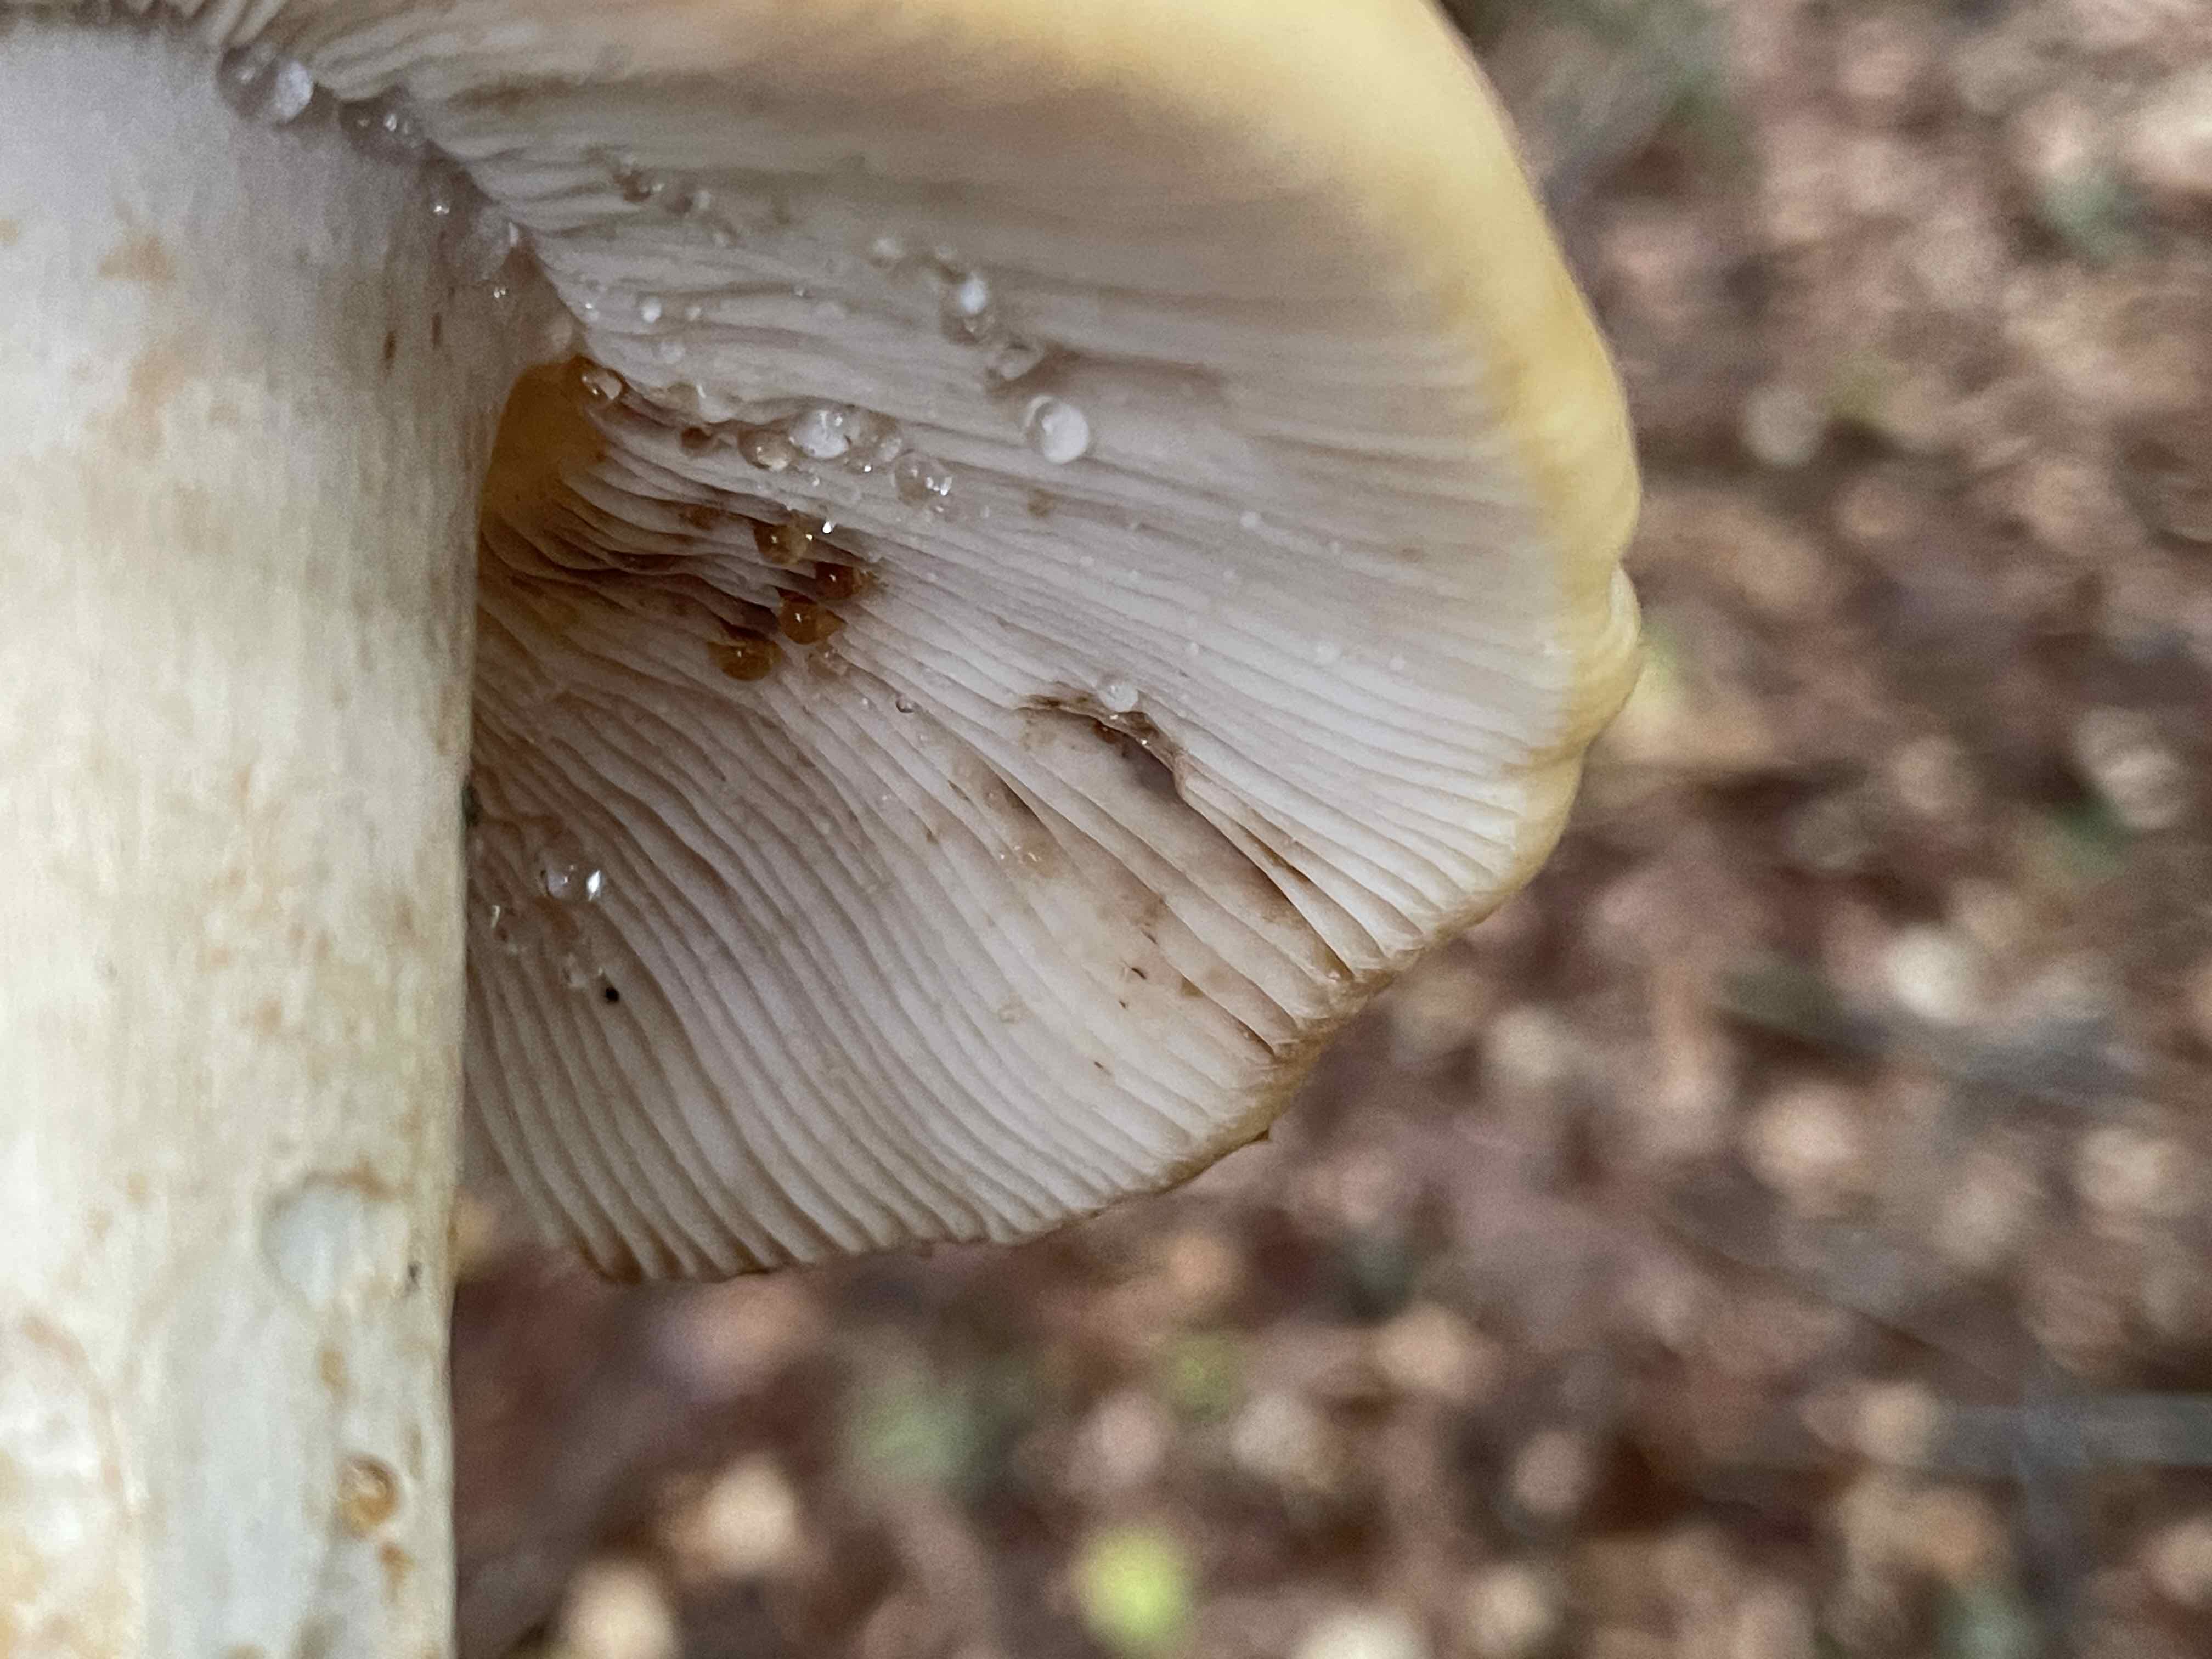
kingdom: Fungi
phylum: Basidiomycota
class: Agaricomycetes
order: Russulales
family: Russulaceae
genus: Russula
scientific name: Russula grata
